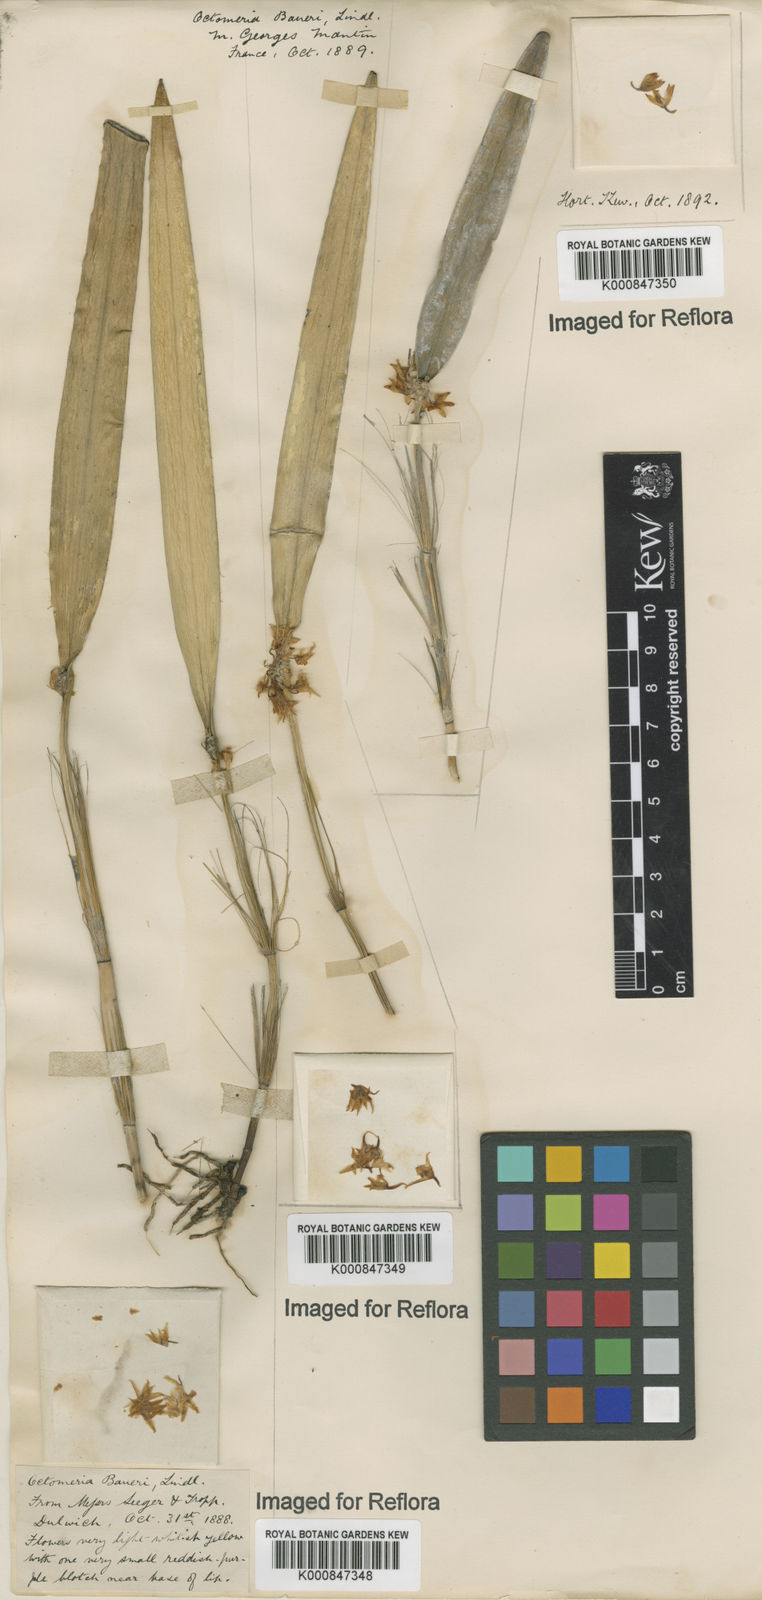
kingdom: Plantae
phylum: Tracheophyta
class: Liliopsida
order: Asparagales
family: Orchidaceae
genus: Octomeria
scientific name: Octomeria crassifolia
